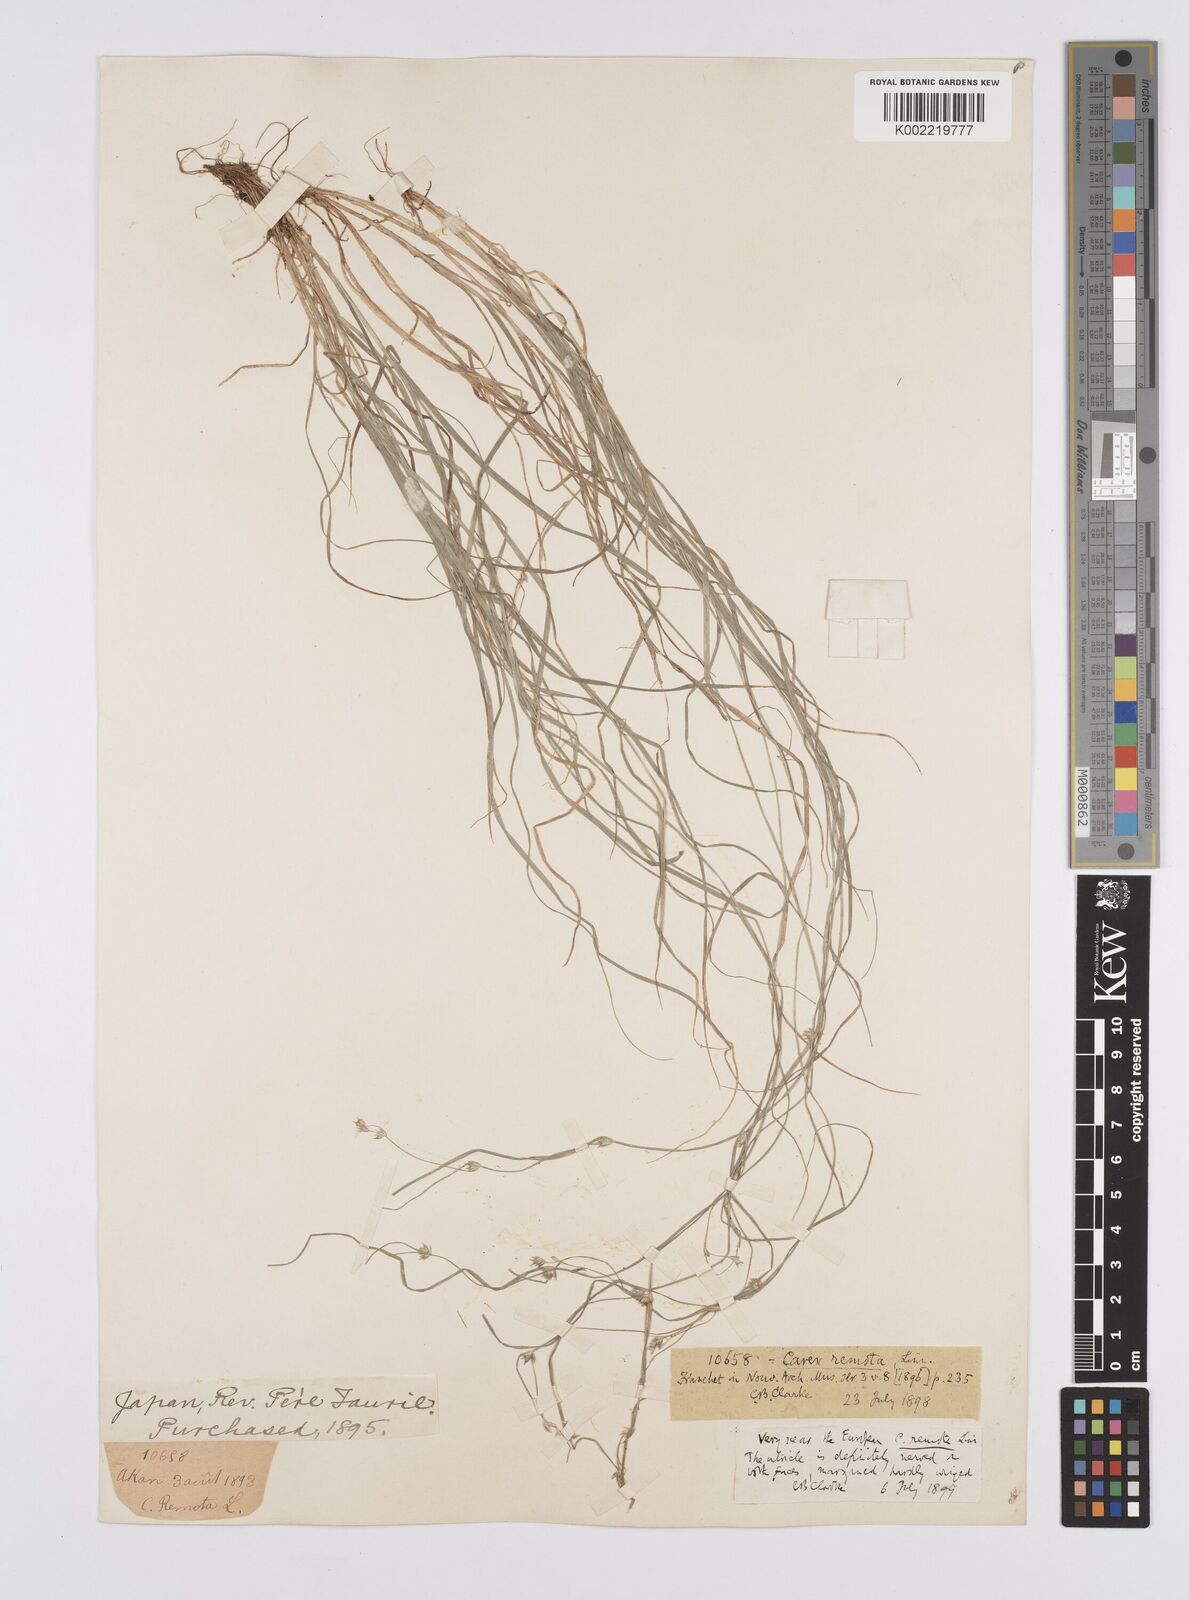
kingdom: Plantae
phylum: Tracheophyta
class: Liliopsida
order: Poales
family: Cyperaceae
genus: Carex
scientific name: Carex remota
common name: Remote sedge
